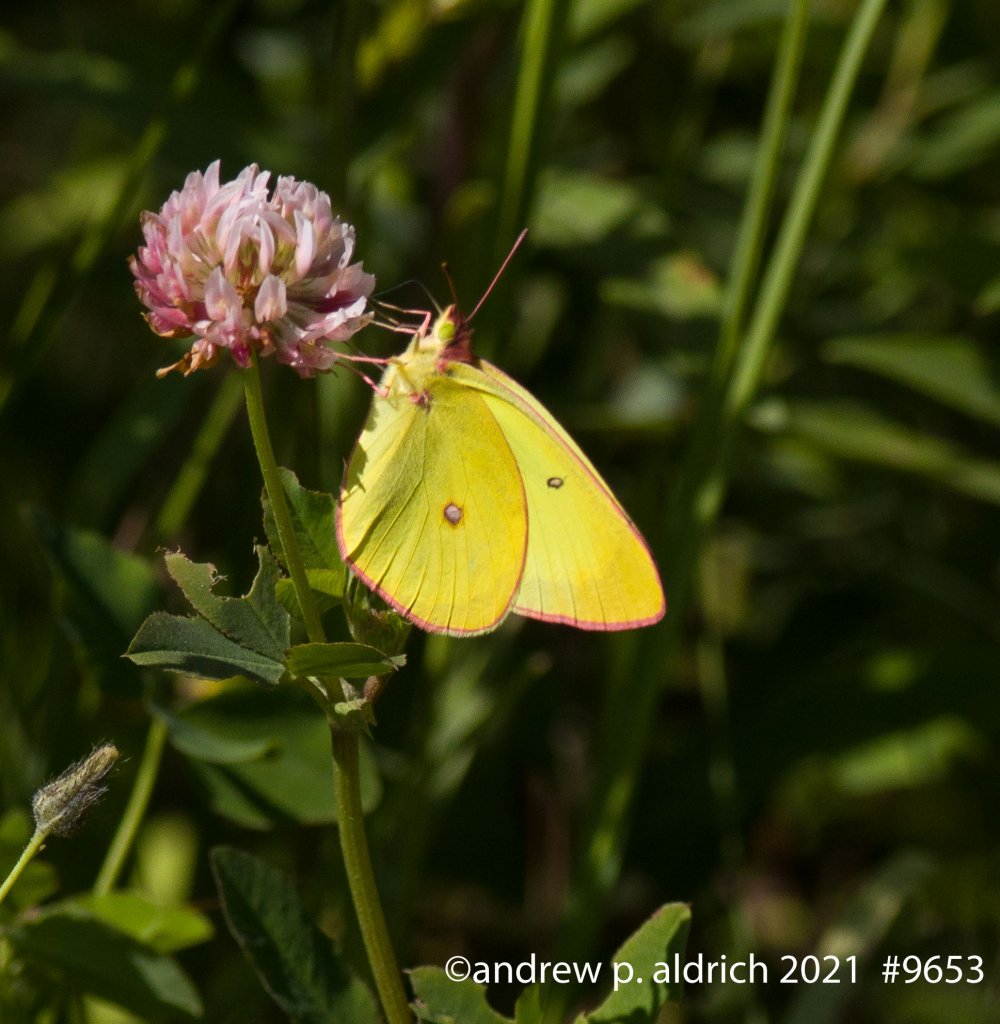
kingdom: Animalia
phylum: Arthropoda
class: Insecta
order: Lepidoptera
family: Pieridae
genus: Colias
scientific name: Colias interior
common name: Pink-edged Sulphur
